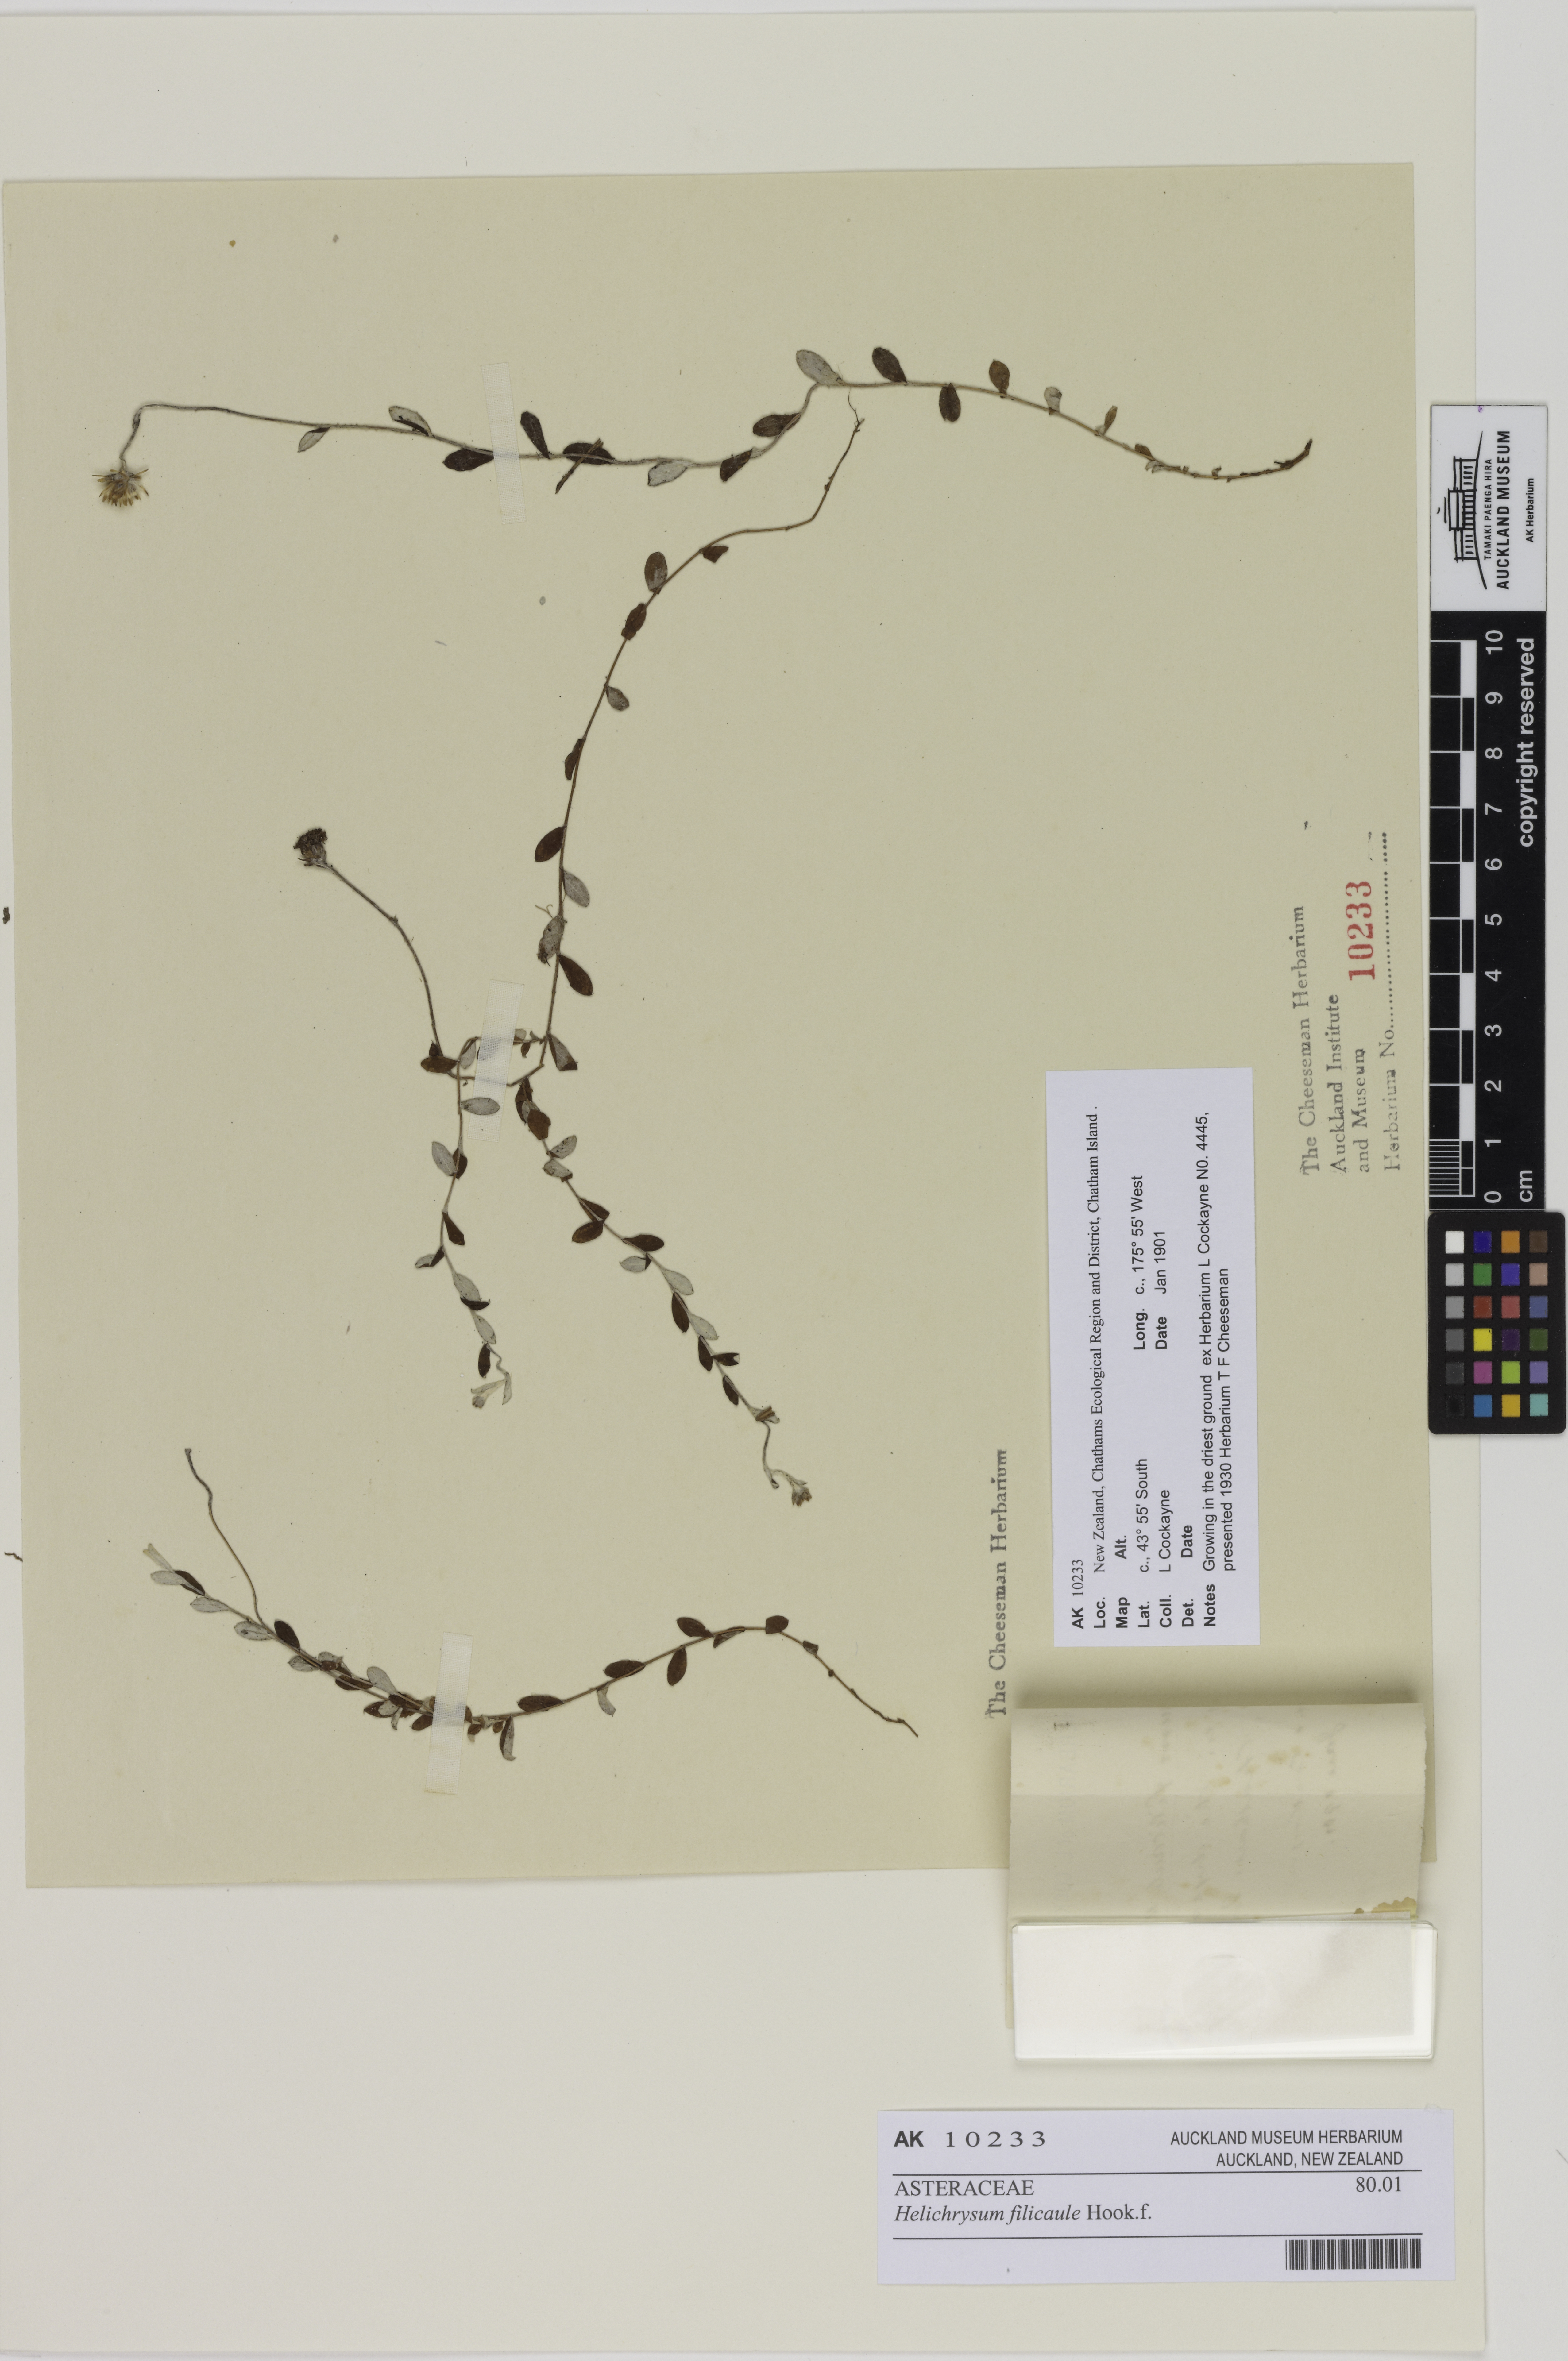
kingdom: Plantae
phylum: Tracheophyta
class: Magnoliopsida
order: Asterales
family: Asteraceae
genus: Helichrysum
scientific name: Helichrysum filicaule
